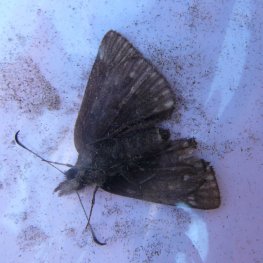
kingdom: Animalia
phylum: Arthropoda
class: Insecta
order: Lepidoptera
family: Hesperiidae
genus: Erynnis
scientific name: Erynnis icelus
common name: Dreamy Duskywing
